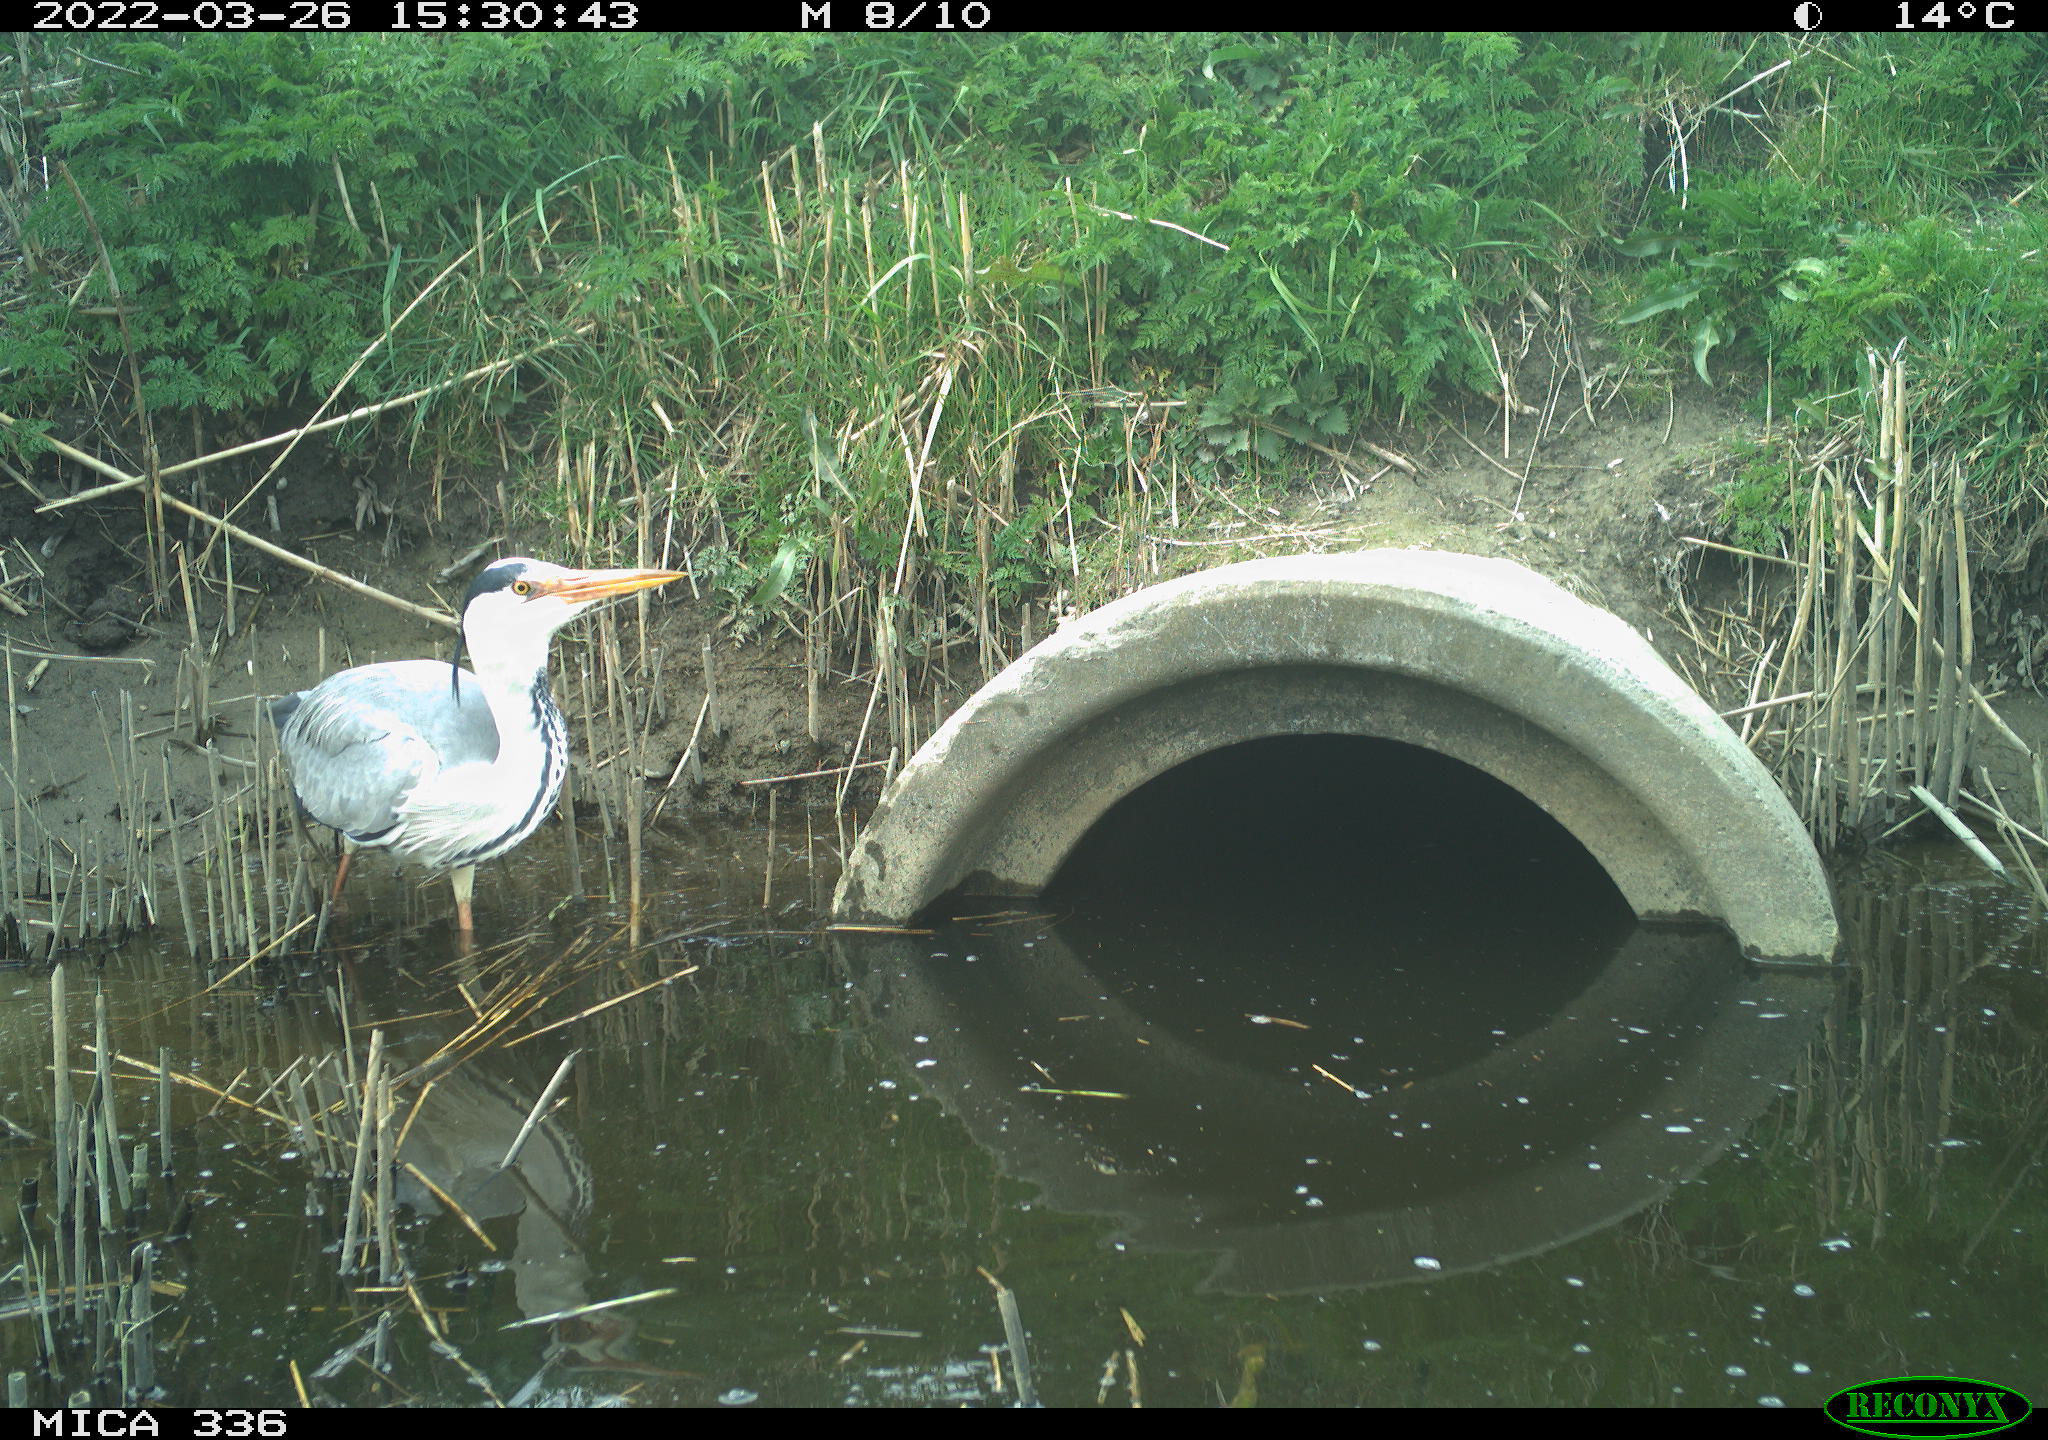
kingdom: Animalia
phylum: Chordata
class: Aves
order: Pelecaniformes
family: Ardeidae
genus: Ardea
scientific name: Ardea cinerea
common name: Grey heron
